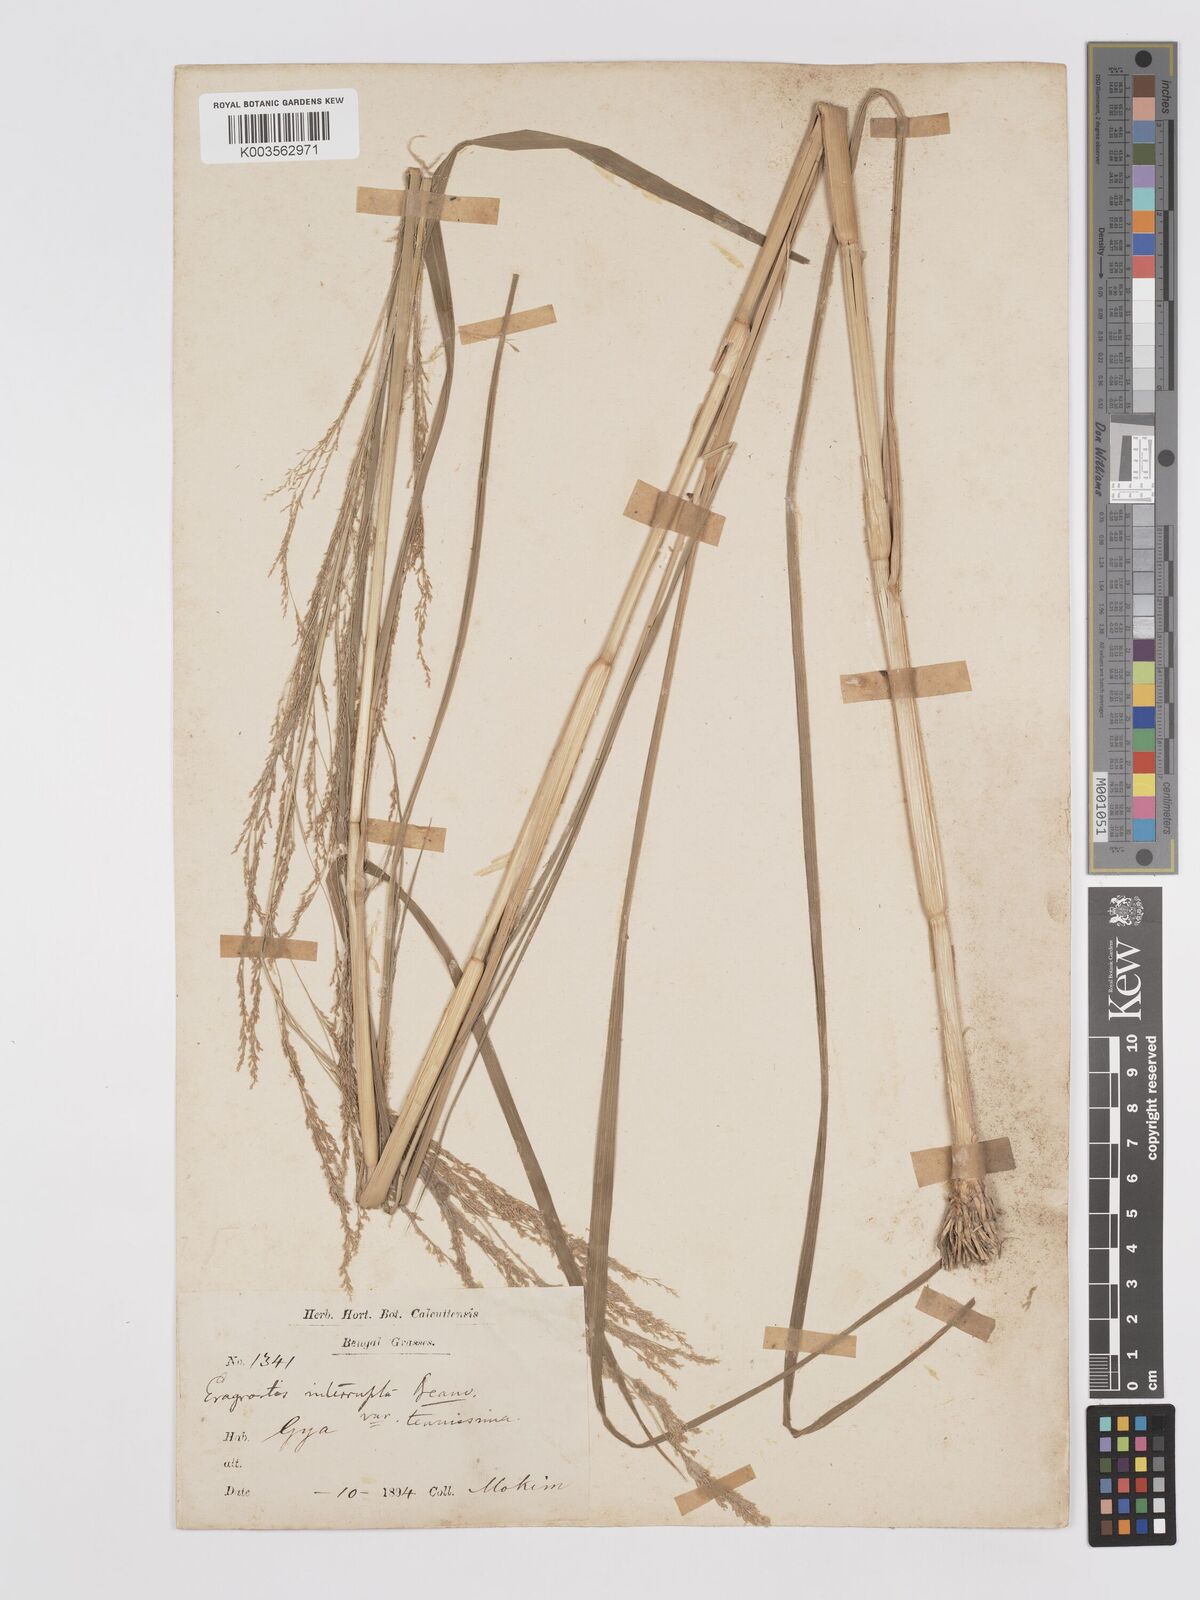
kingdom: Plantae
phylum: Tracheophyta
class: Liliopsida
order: Poales
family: Poaceae
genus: Eragrostis
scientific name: Eragrostis japonica
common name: Pond lovegrass
